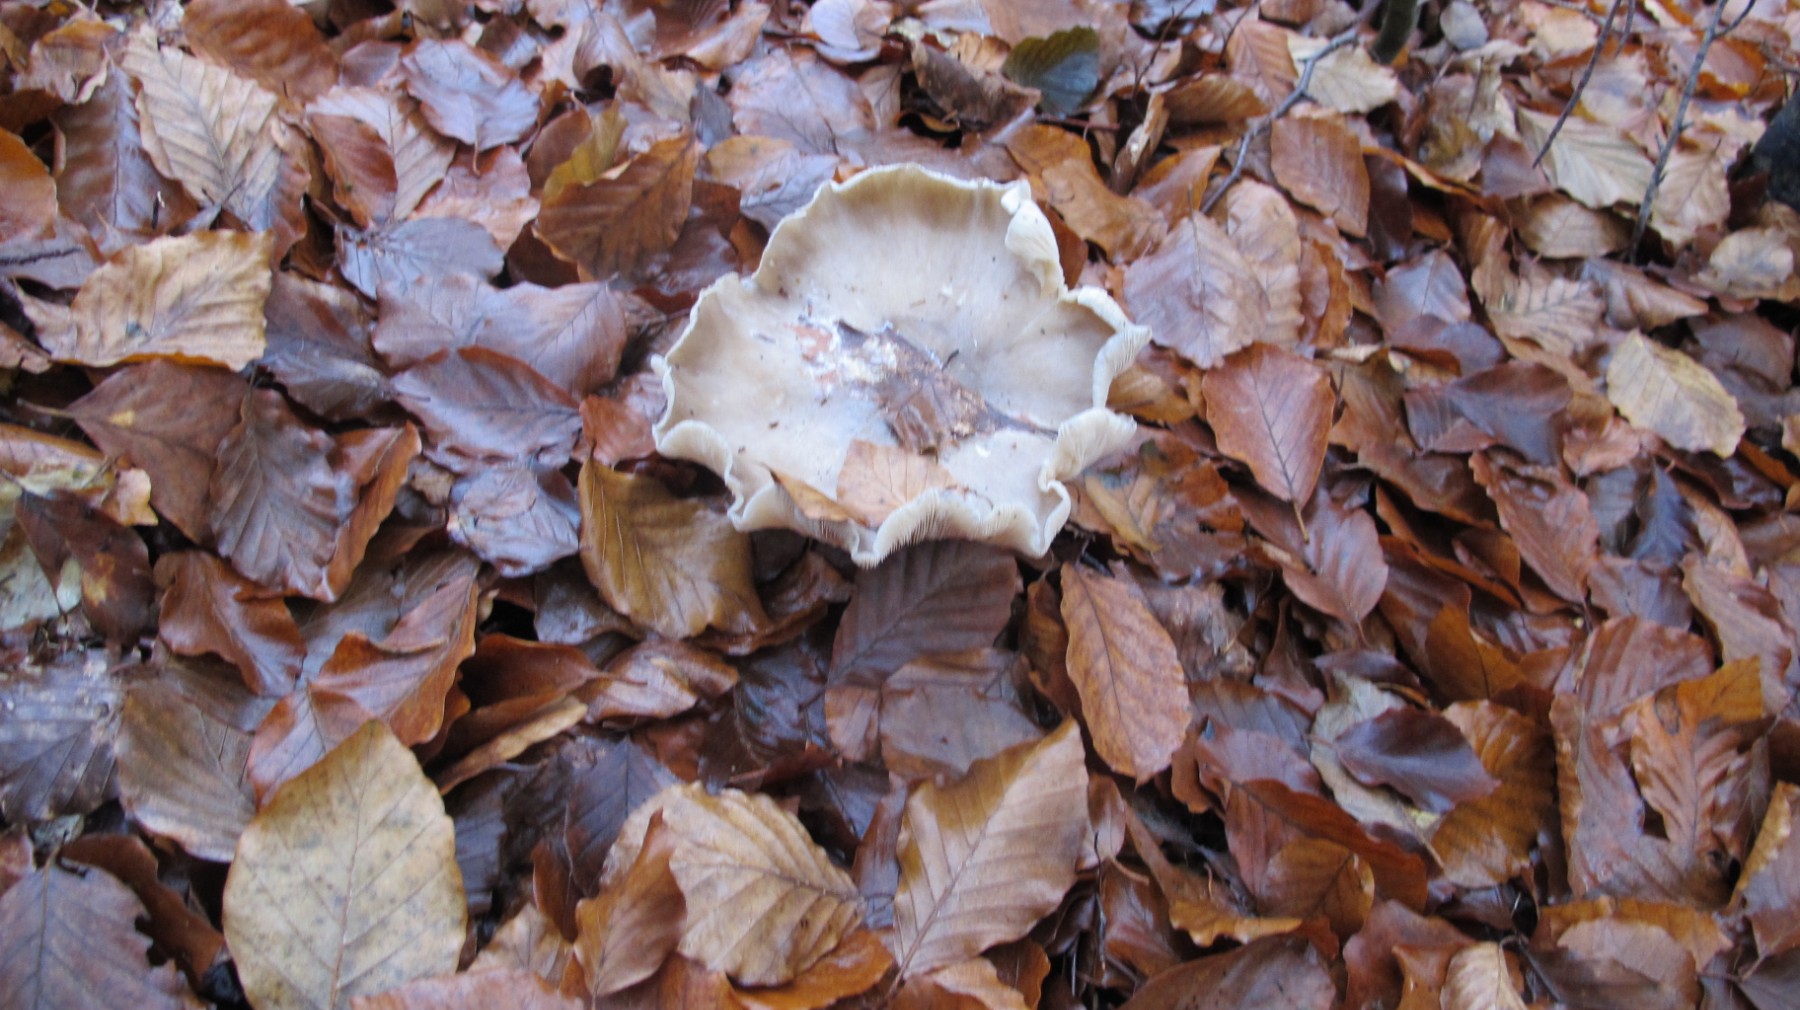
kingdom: Fungi
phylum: Basidiomycota
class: Agaricomycetes
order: Agaricales
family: Tricholomataceae
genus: Clitocybe
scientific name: Clitocybe nebularis
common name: tåge-tragthat
